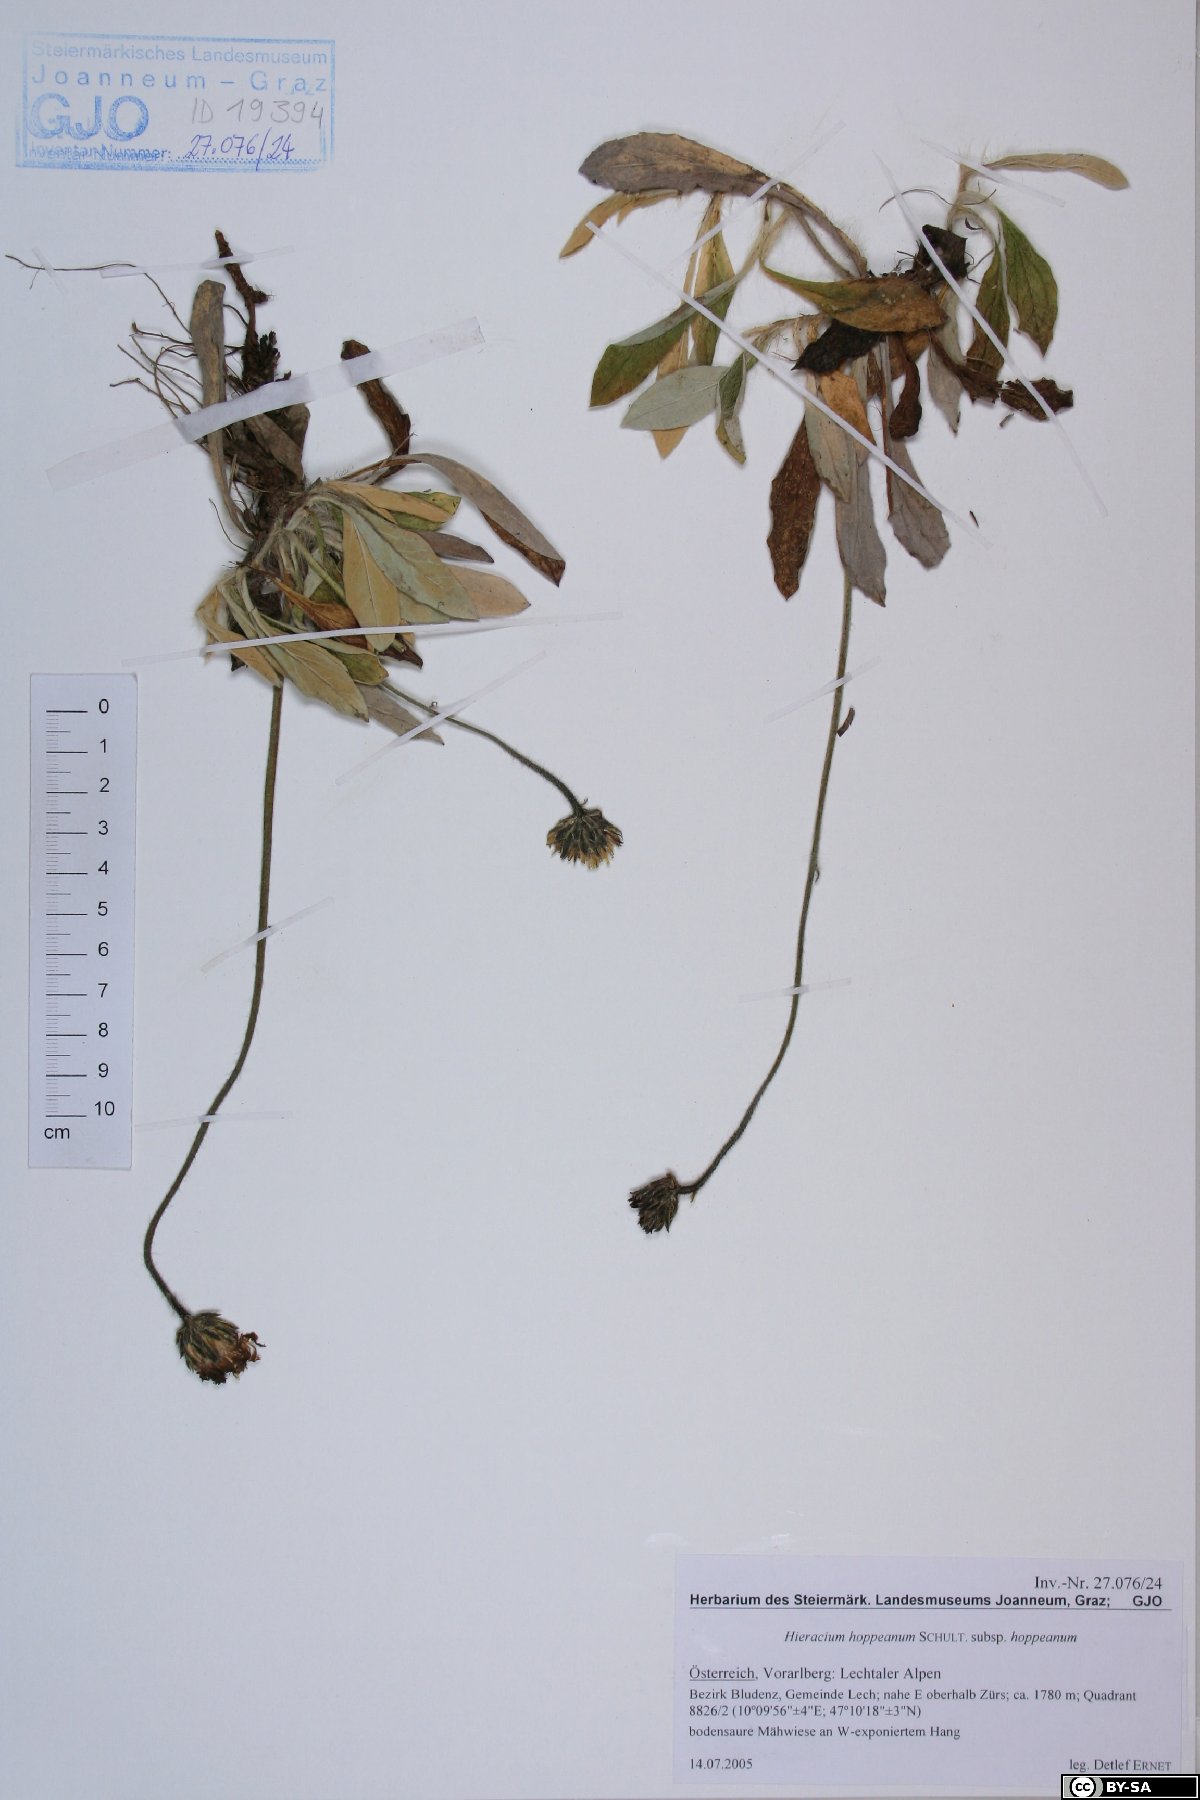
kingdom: Plantae
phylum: Tracheophyta
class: Magnoliopsida
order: Asterales
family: Asteraceae
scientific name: Asteraceae
